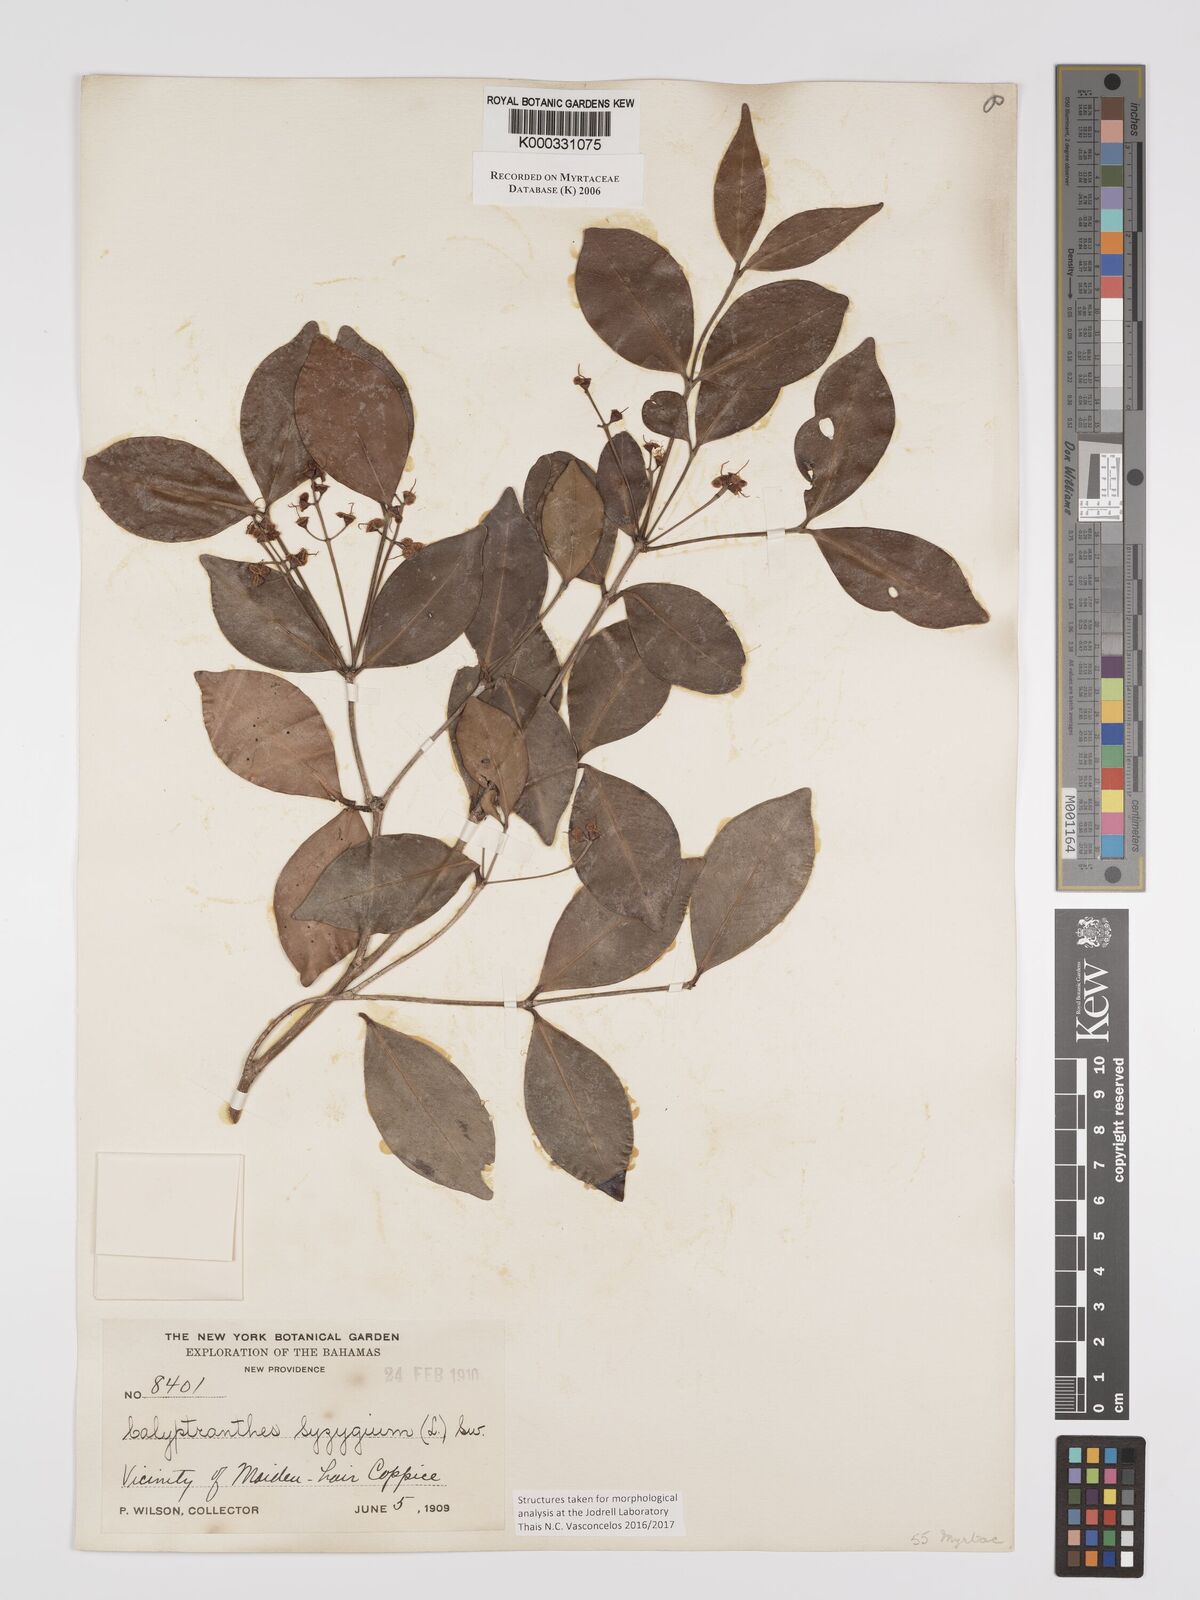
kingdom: Plantae
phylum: Tracheophyta
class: Magnoliopsida
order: Myrtales
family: Myrtaceae
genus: Myrcia
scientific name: Myrcia chytraculia
